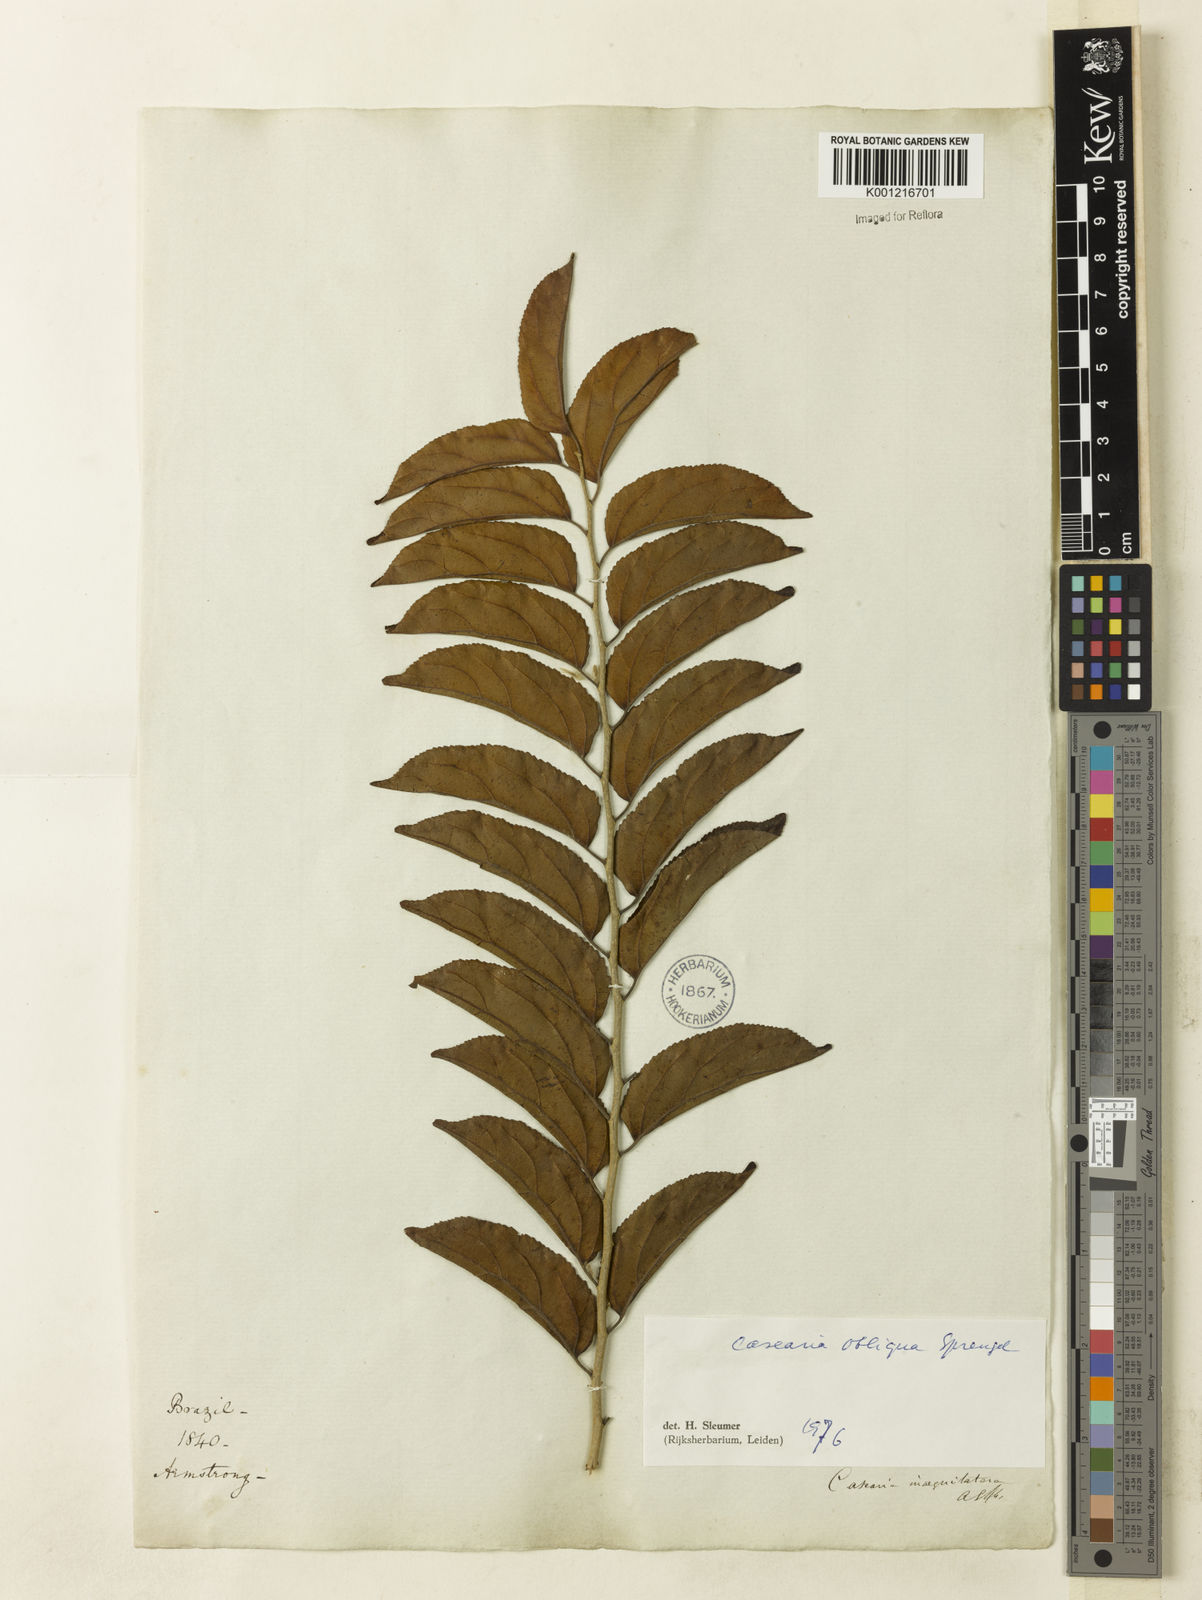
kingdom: Plantae
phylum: Tracheophyta
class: Magnoliopsida
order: Malpighiales
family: Salicaceae
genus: Casearia
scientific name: Casearia obliqua
